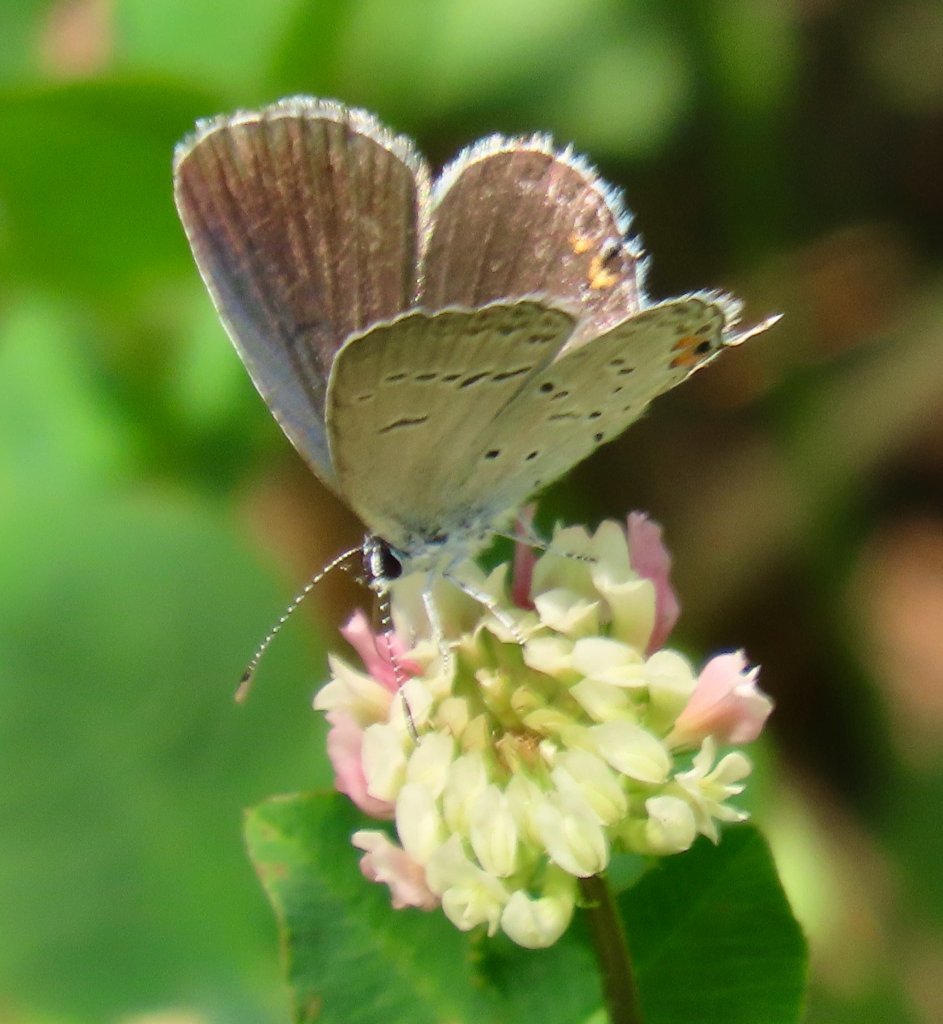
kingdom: Animalia
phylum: Arthropoda
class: Insecta
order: Lepidoptera
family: Lycaenidae
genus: Elkalyce
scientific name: Elkalyce comyntas
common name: Eastern Tailed-Blue
